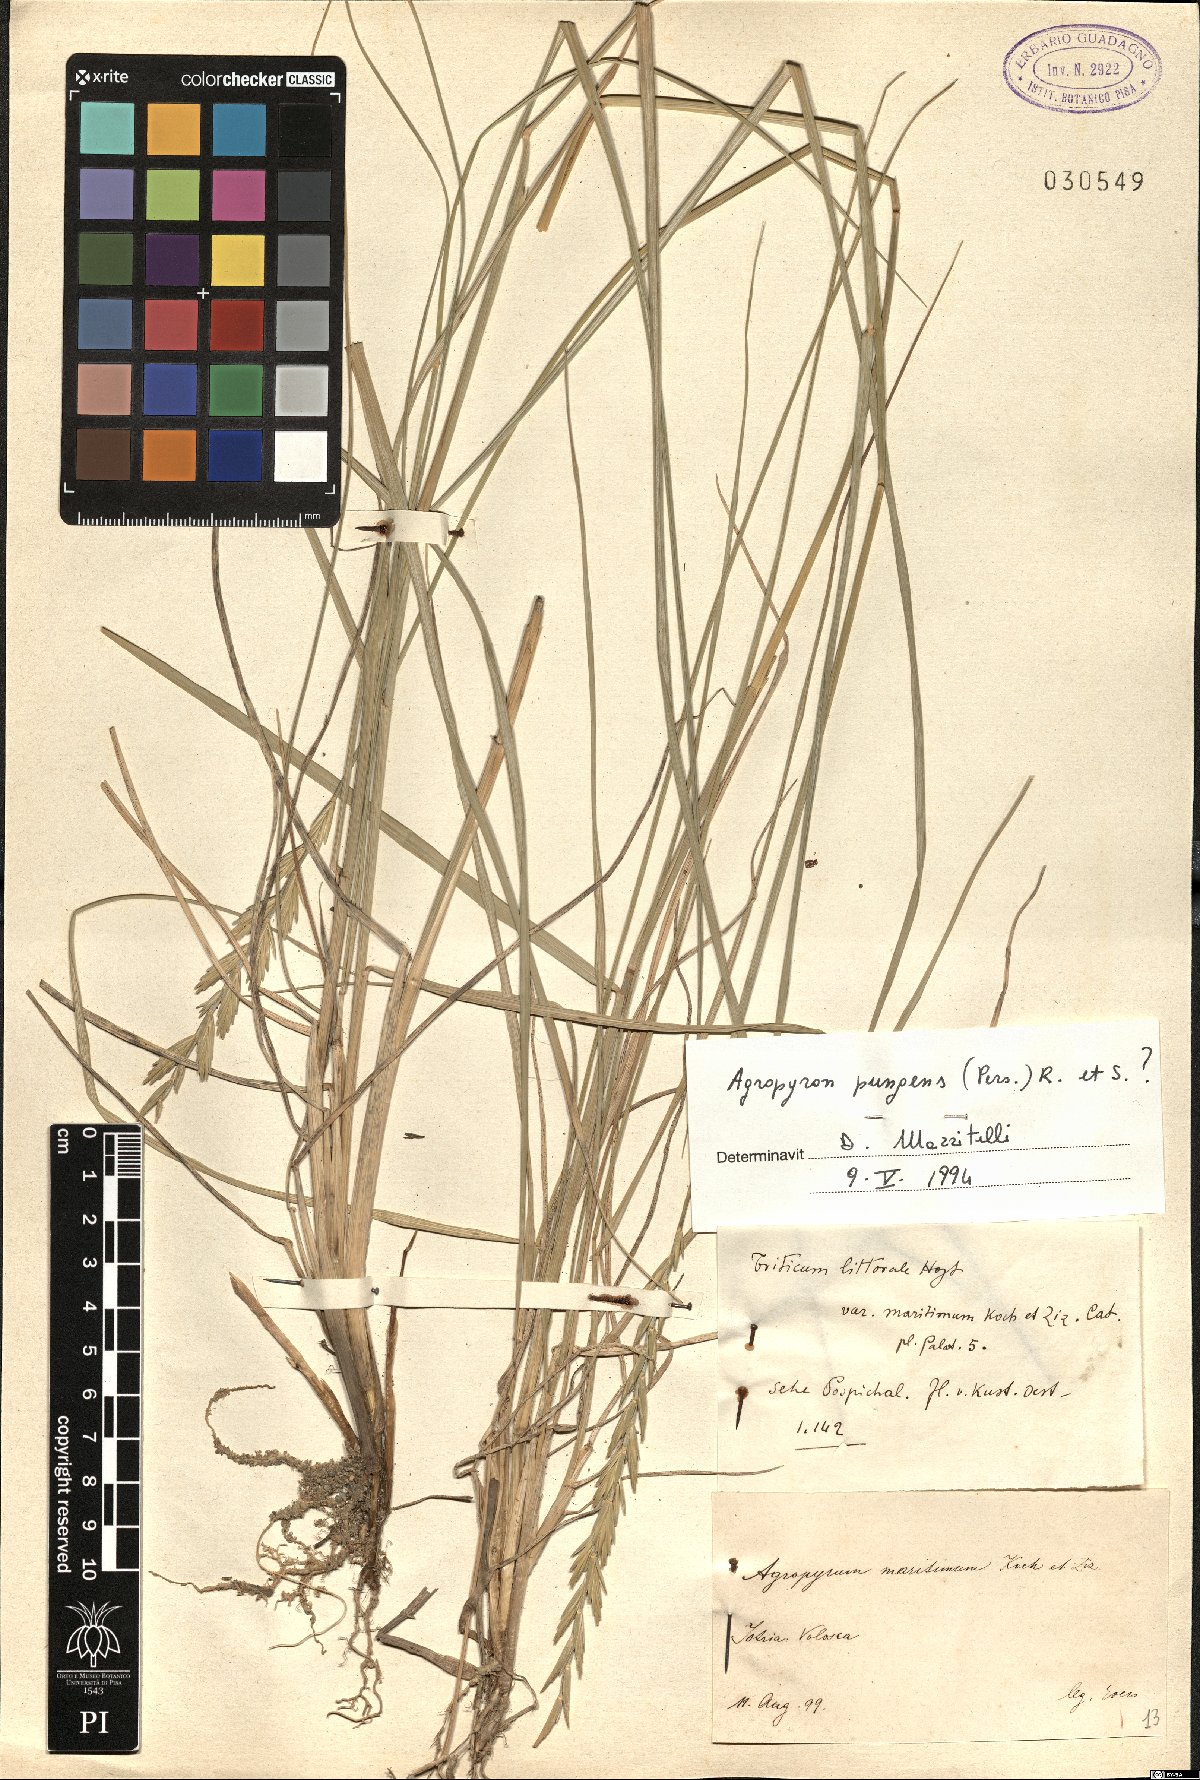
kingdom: Plantae
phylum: Tracheophyta
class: Liliopsida
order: Poales
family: Poaceae
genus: Elymus
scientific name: Elymus pungens
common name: Sea couch
